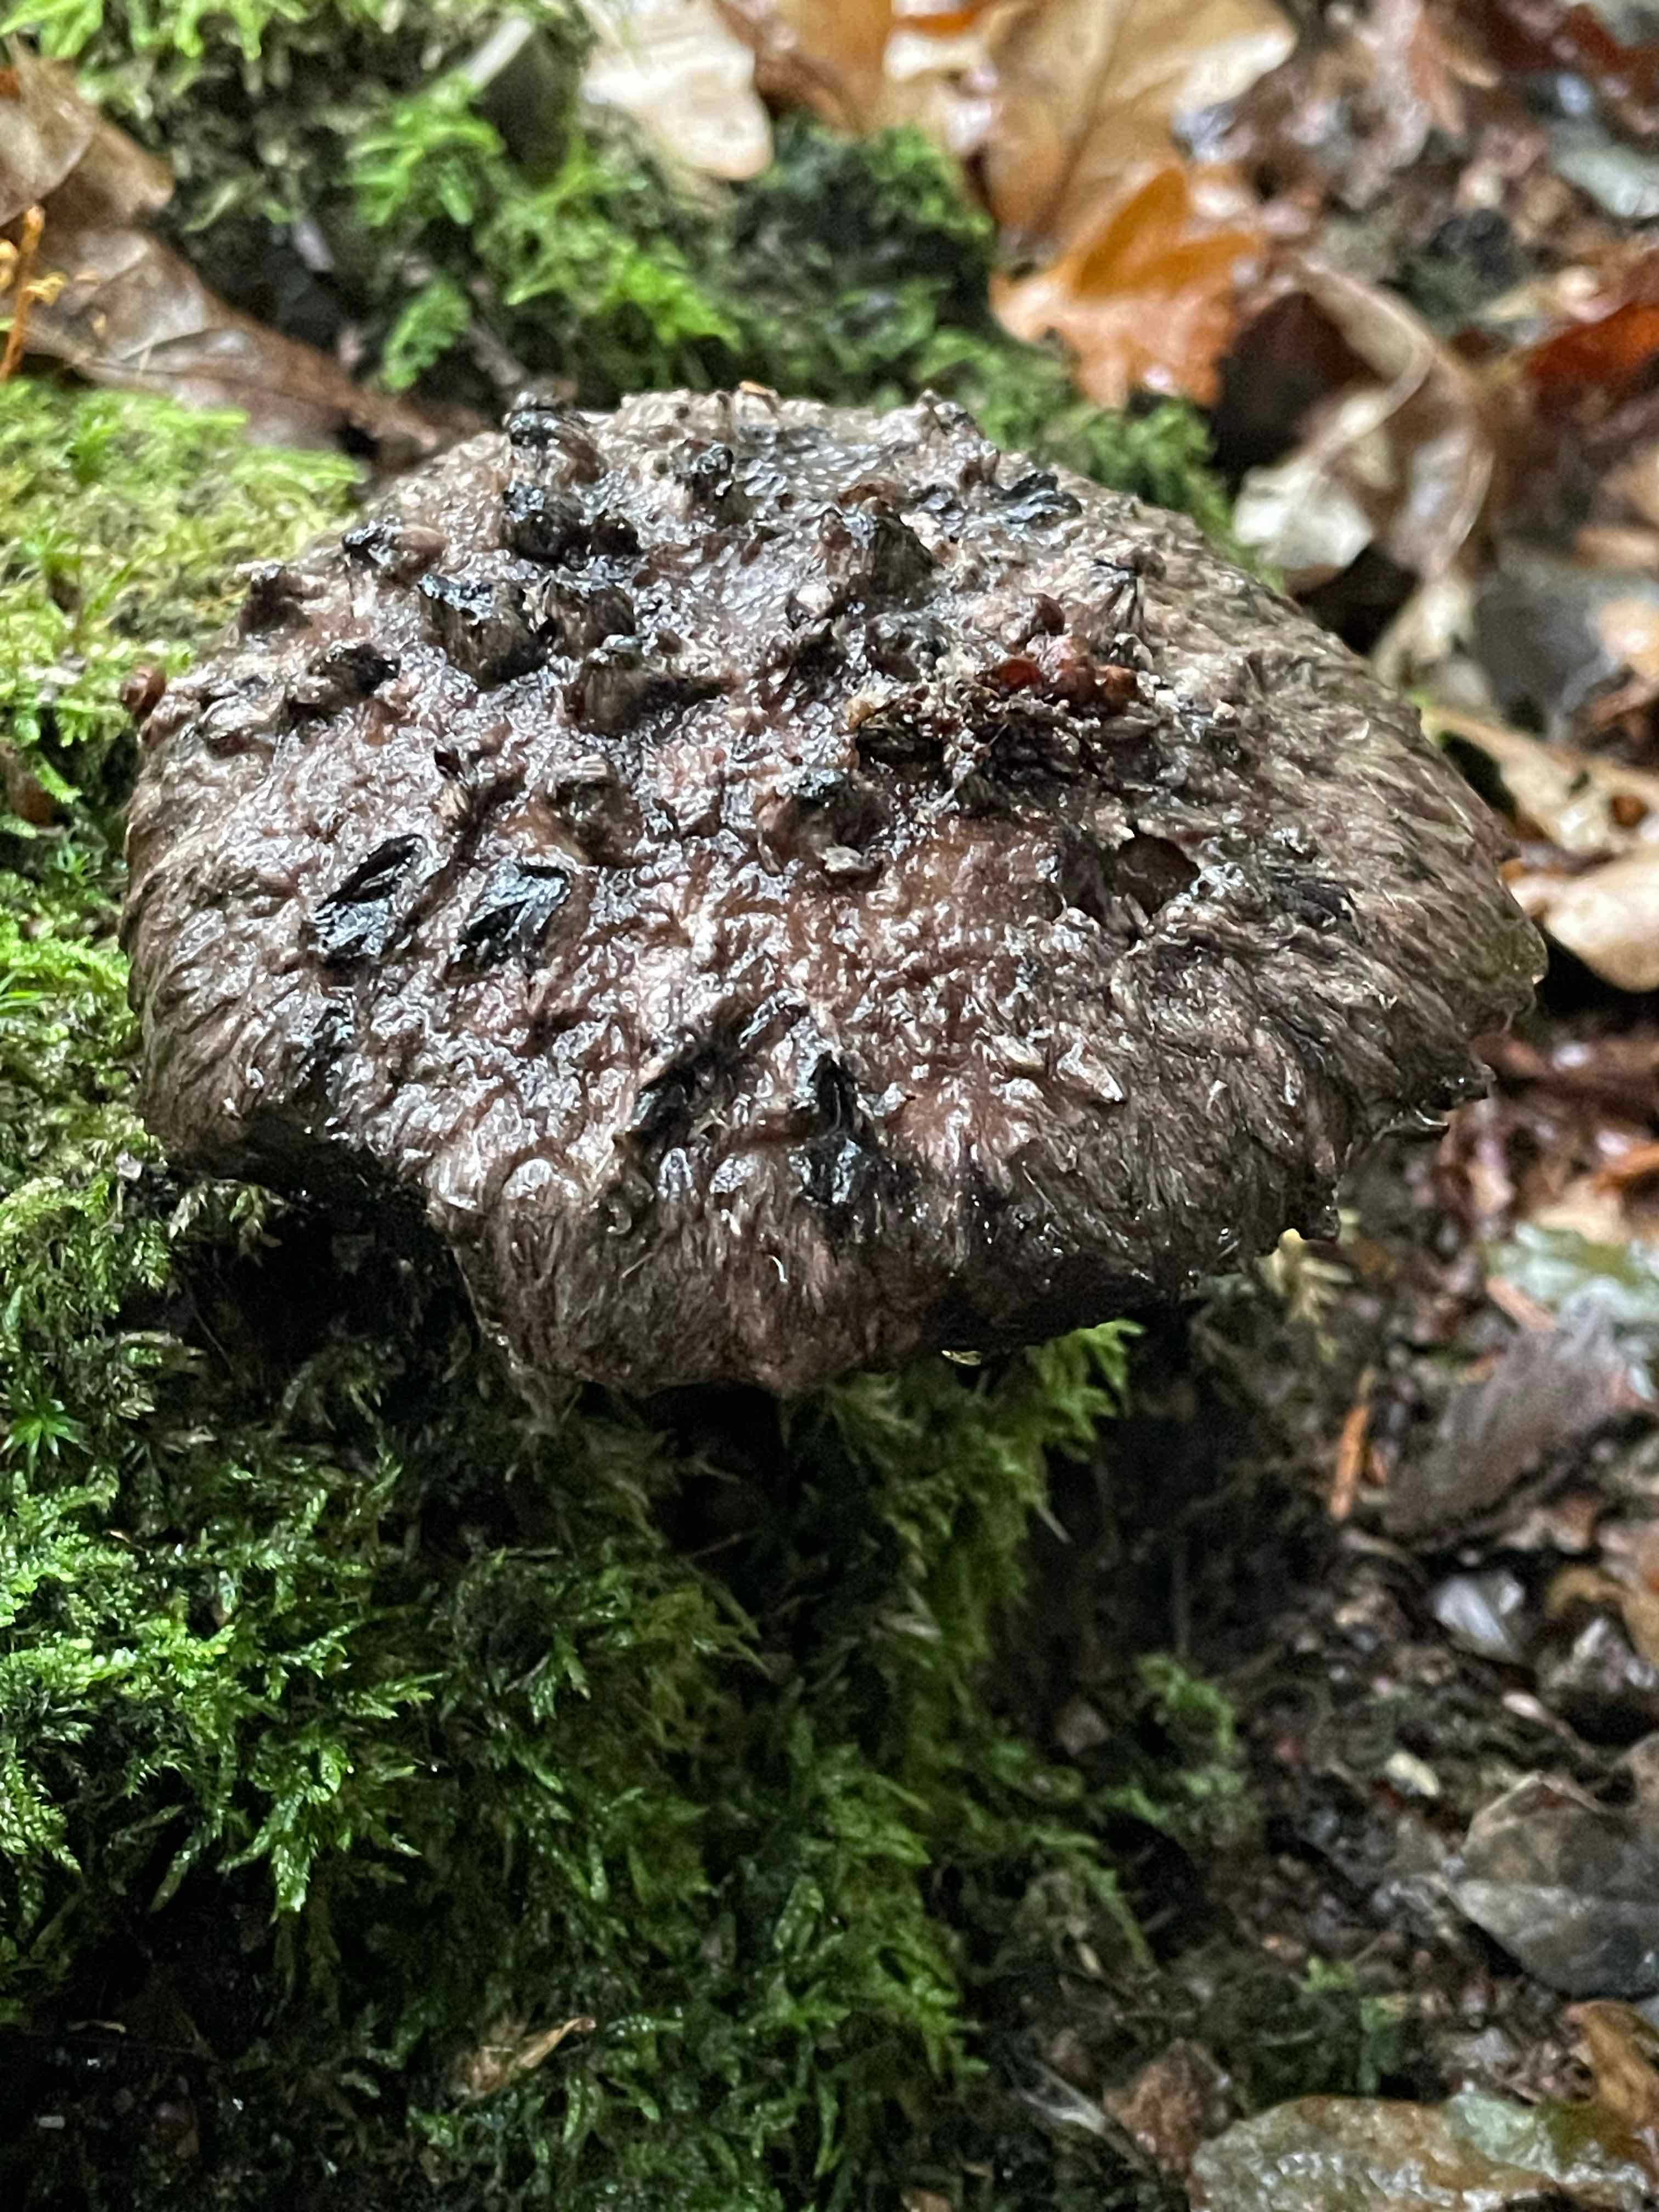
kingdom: Fungi
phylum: Basidiomycota
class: Agaricomycetes
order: Boletales
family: Boletaceae
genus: Strobilomyces
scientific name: Strobilomyces strobilaceus
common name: koglerørhat
